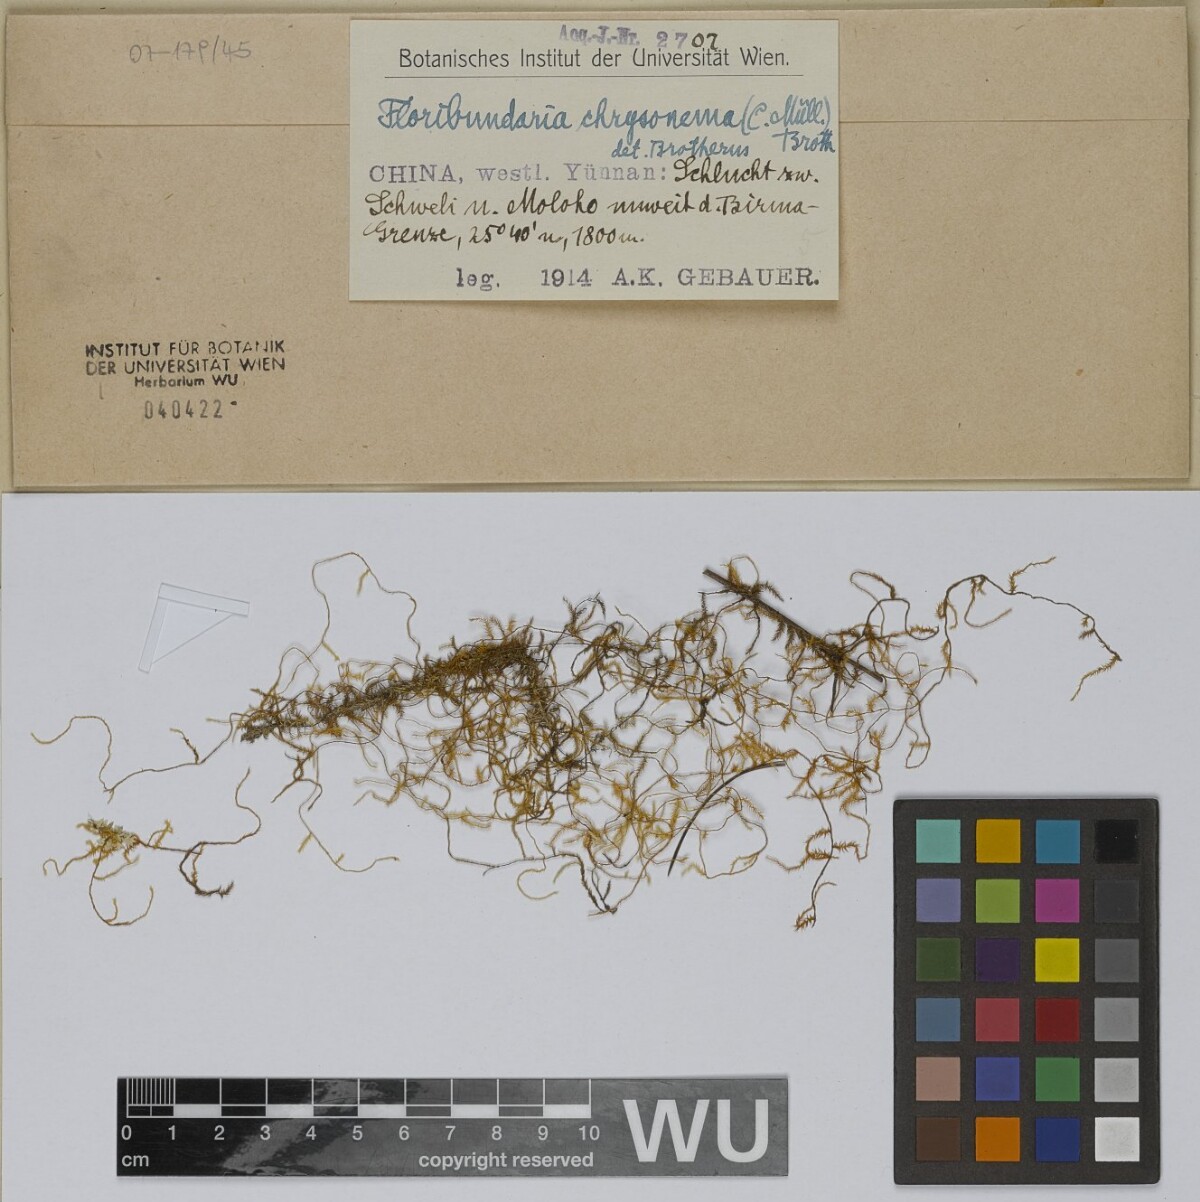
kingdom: Plantae
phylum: Bryophyta
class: Bryopsida
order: Hypnales
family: Meteoriaceae
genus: Barbella
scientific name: Barbella chrysonema
